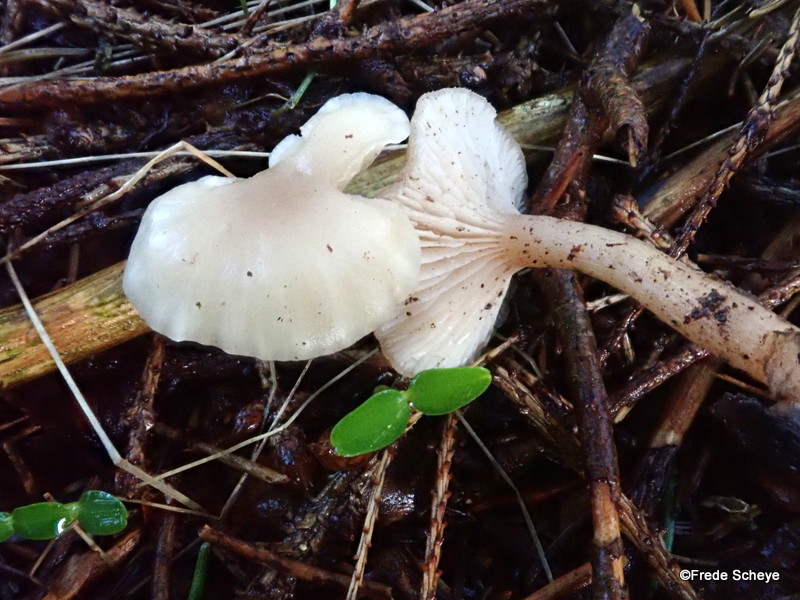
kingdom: Fungi
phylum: Basidiomycota
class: Agaricomycetes
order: Agaricales
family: Tricholomataceae
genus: Clitocybe
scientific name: Clitocybe fragrans
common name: vellugtende tragthat
